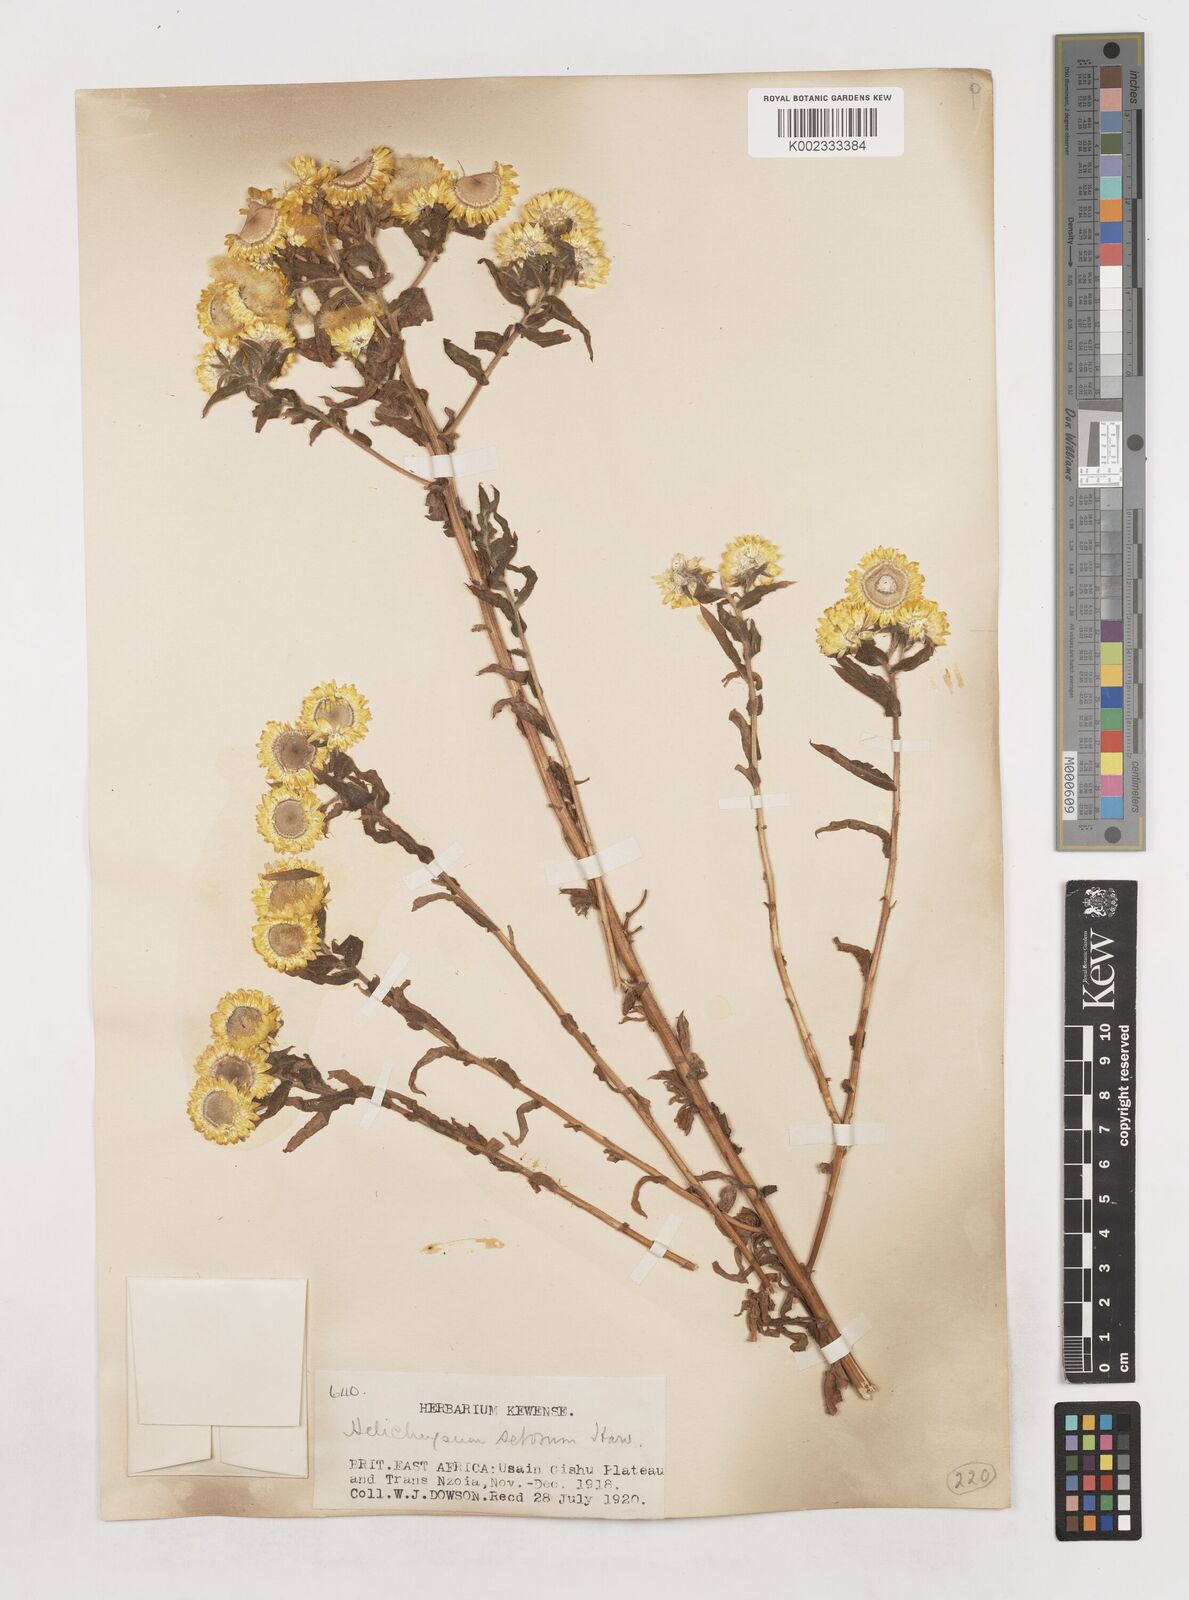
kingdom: Plantae
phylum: Tracheophyta
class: Magnoliopsida
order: Asterales
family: Asteraceae
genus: Helichrysum
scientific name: Helichrysum setosum
